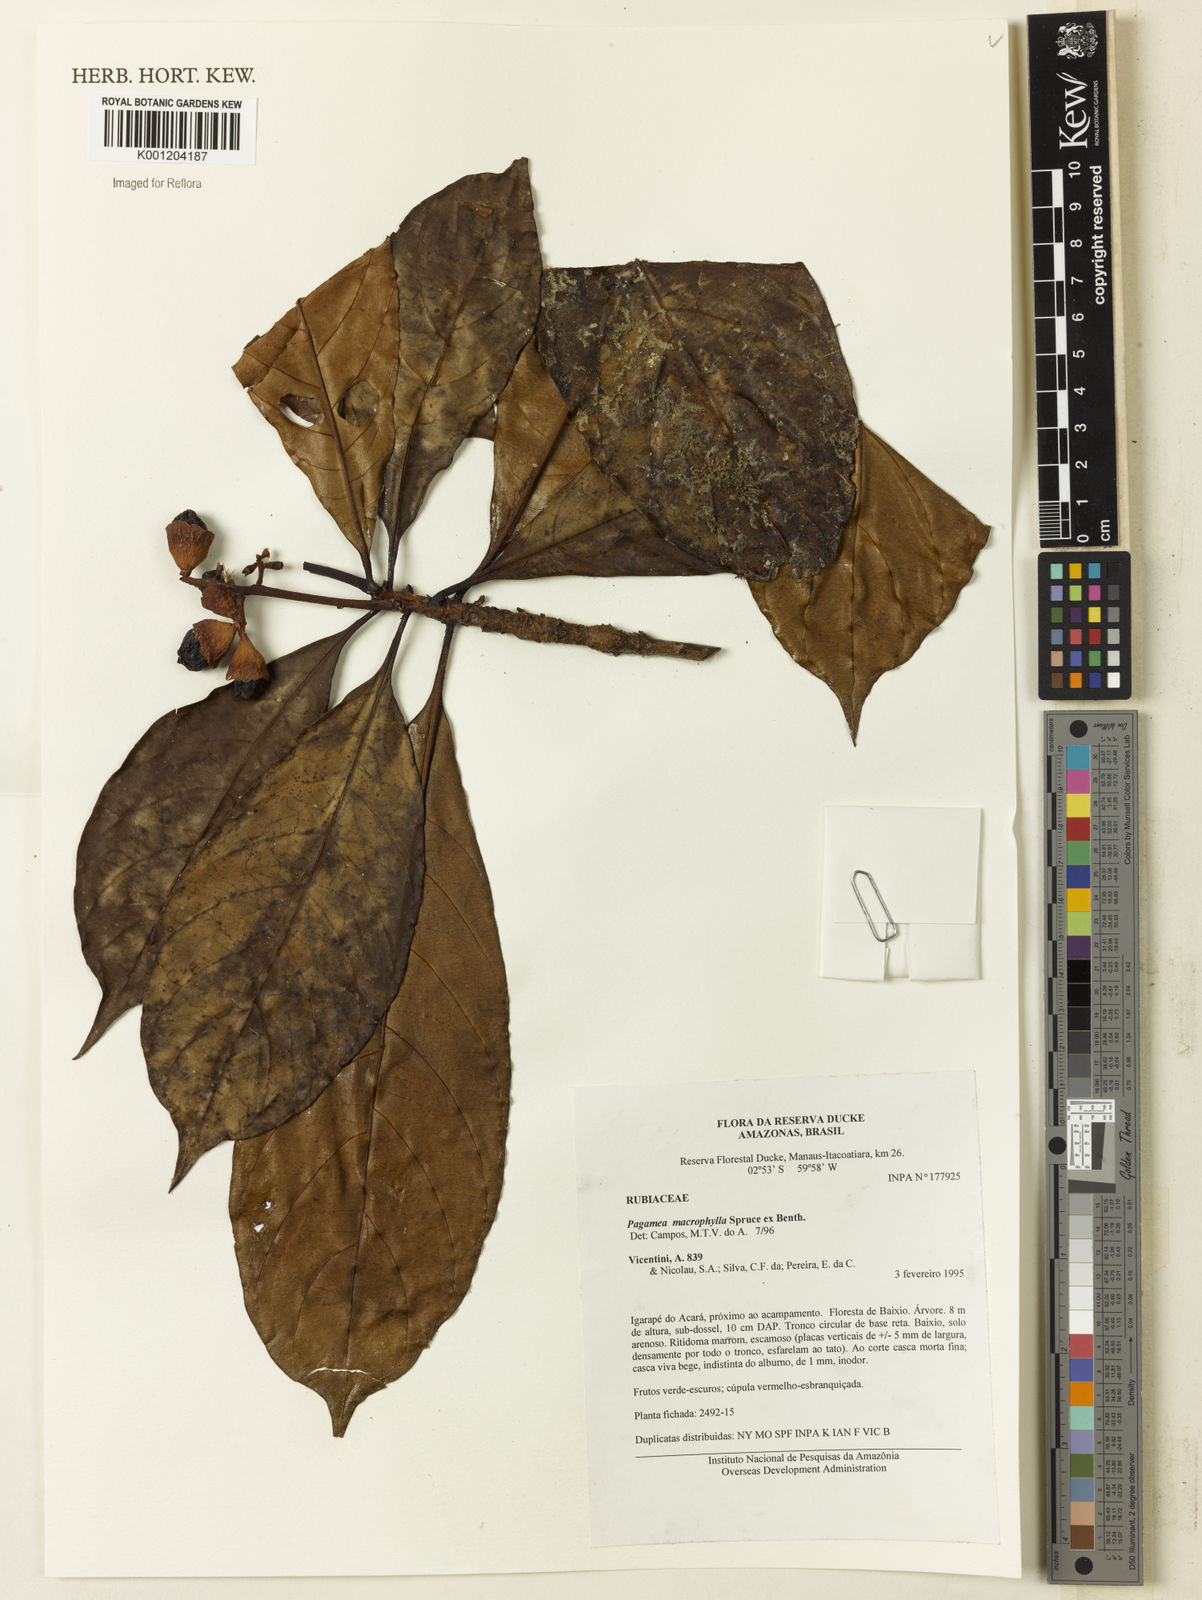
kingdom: Plantae
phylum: Tracheophyta
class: Magnoliopsida
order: Gentianales
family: Rubiaceae
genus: Pagamea
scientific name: Pagamea macrophylla
